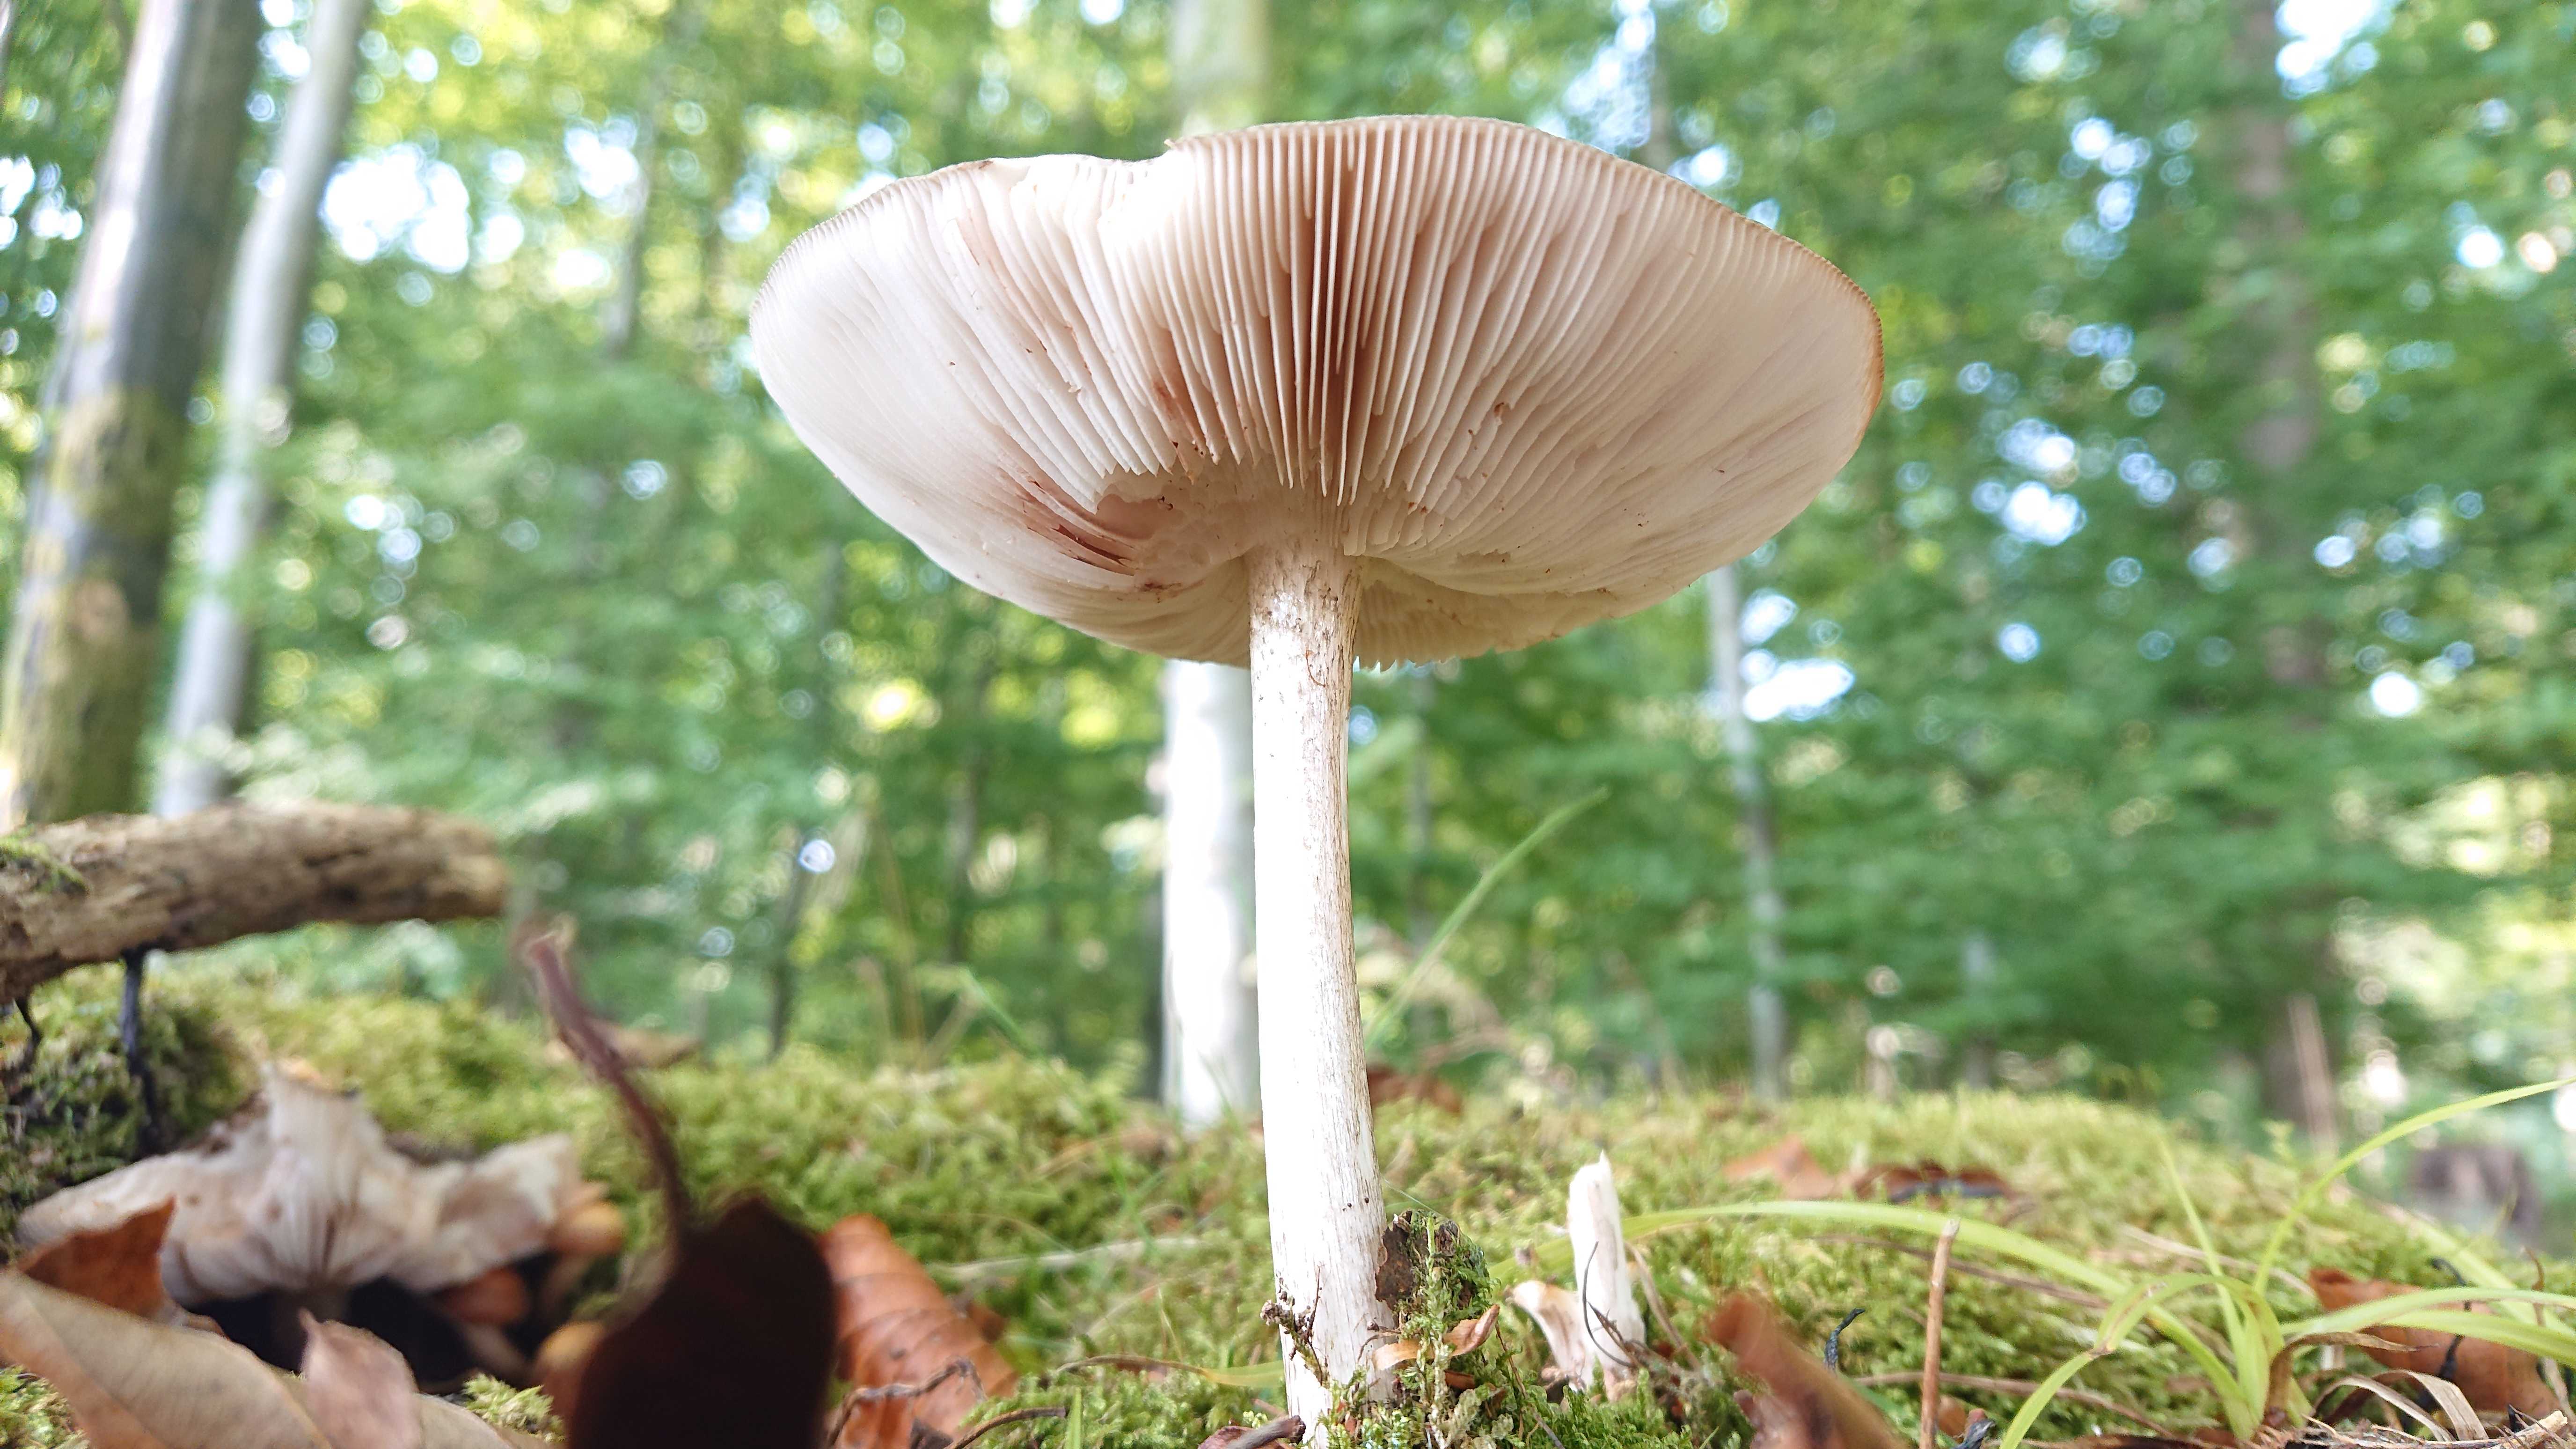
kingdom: Fungi
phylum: Basidiomycota
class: Agaricomycetes
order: Agaricales
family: Pluteaceae
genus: Pluteus
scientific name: Pluteus cervinus
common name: sodfarvet skærmhat
